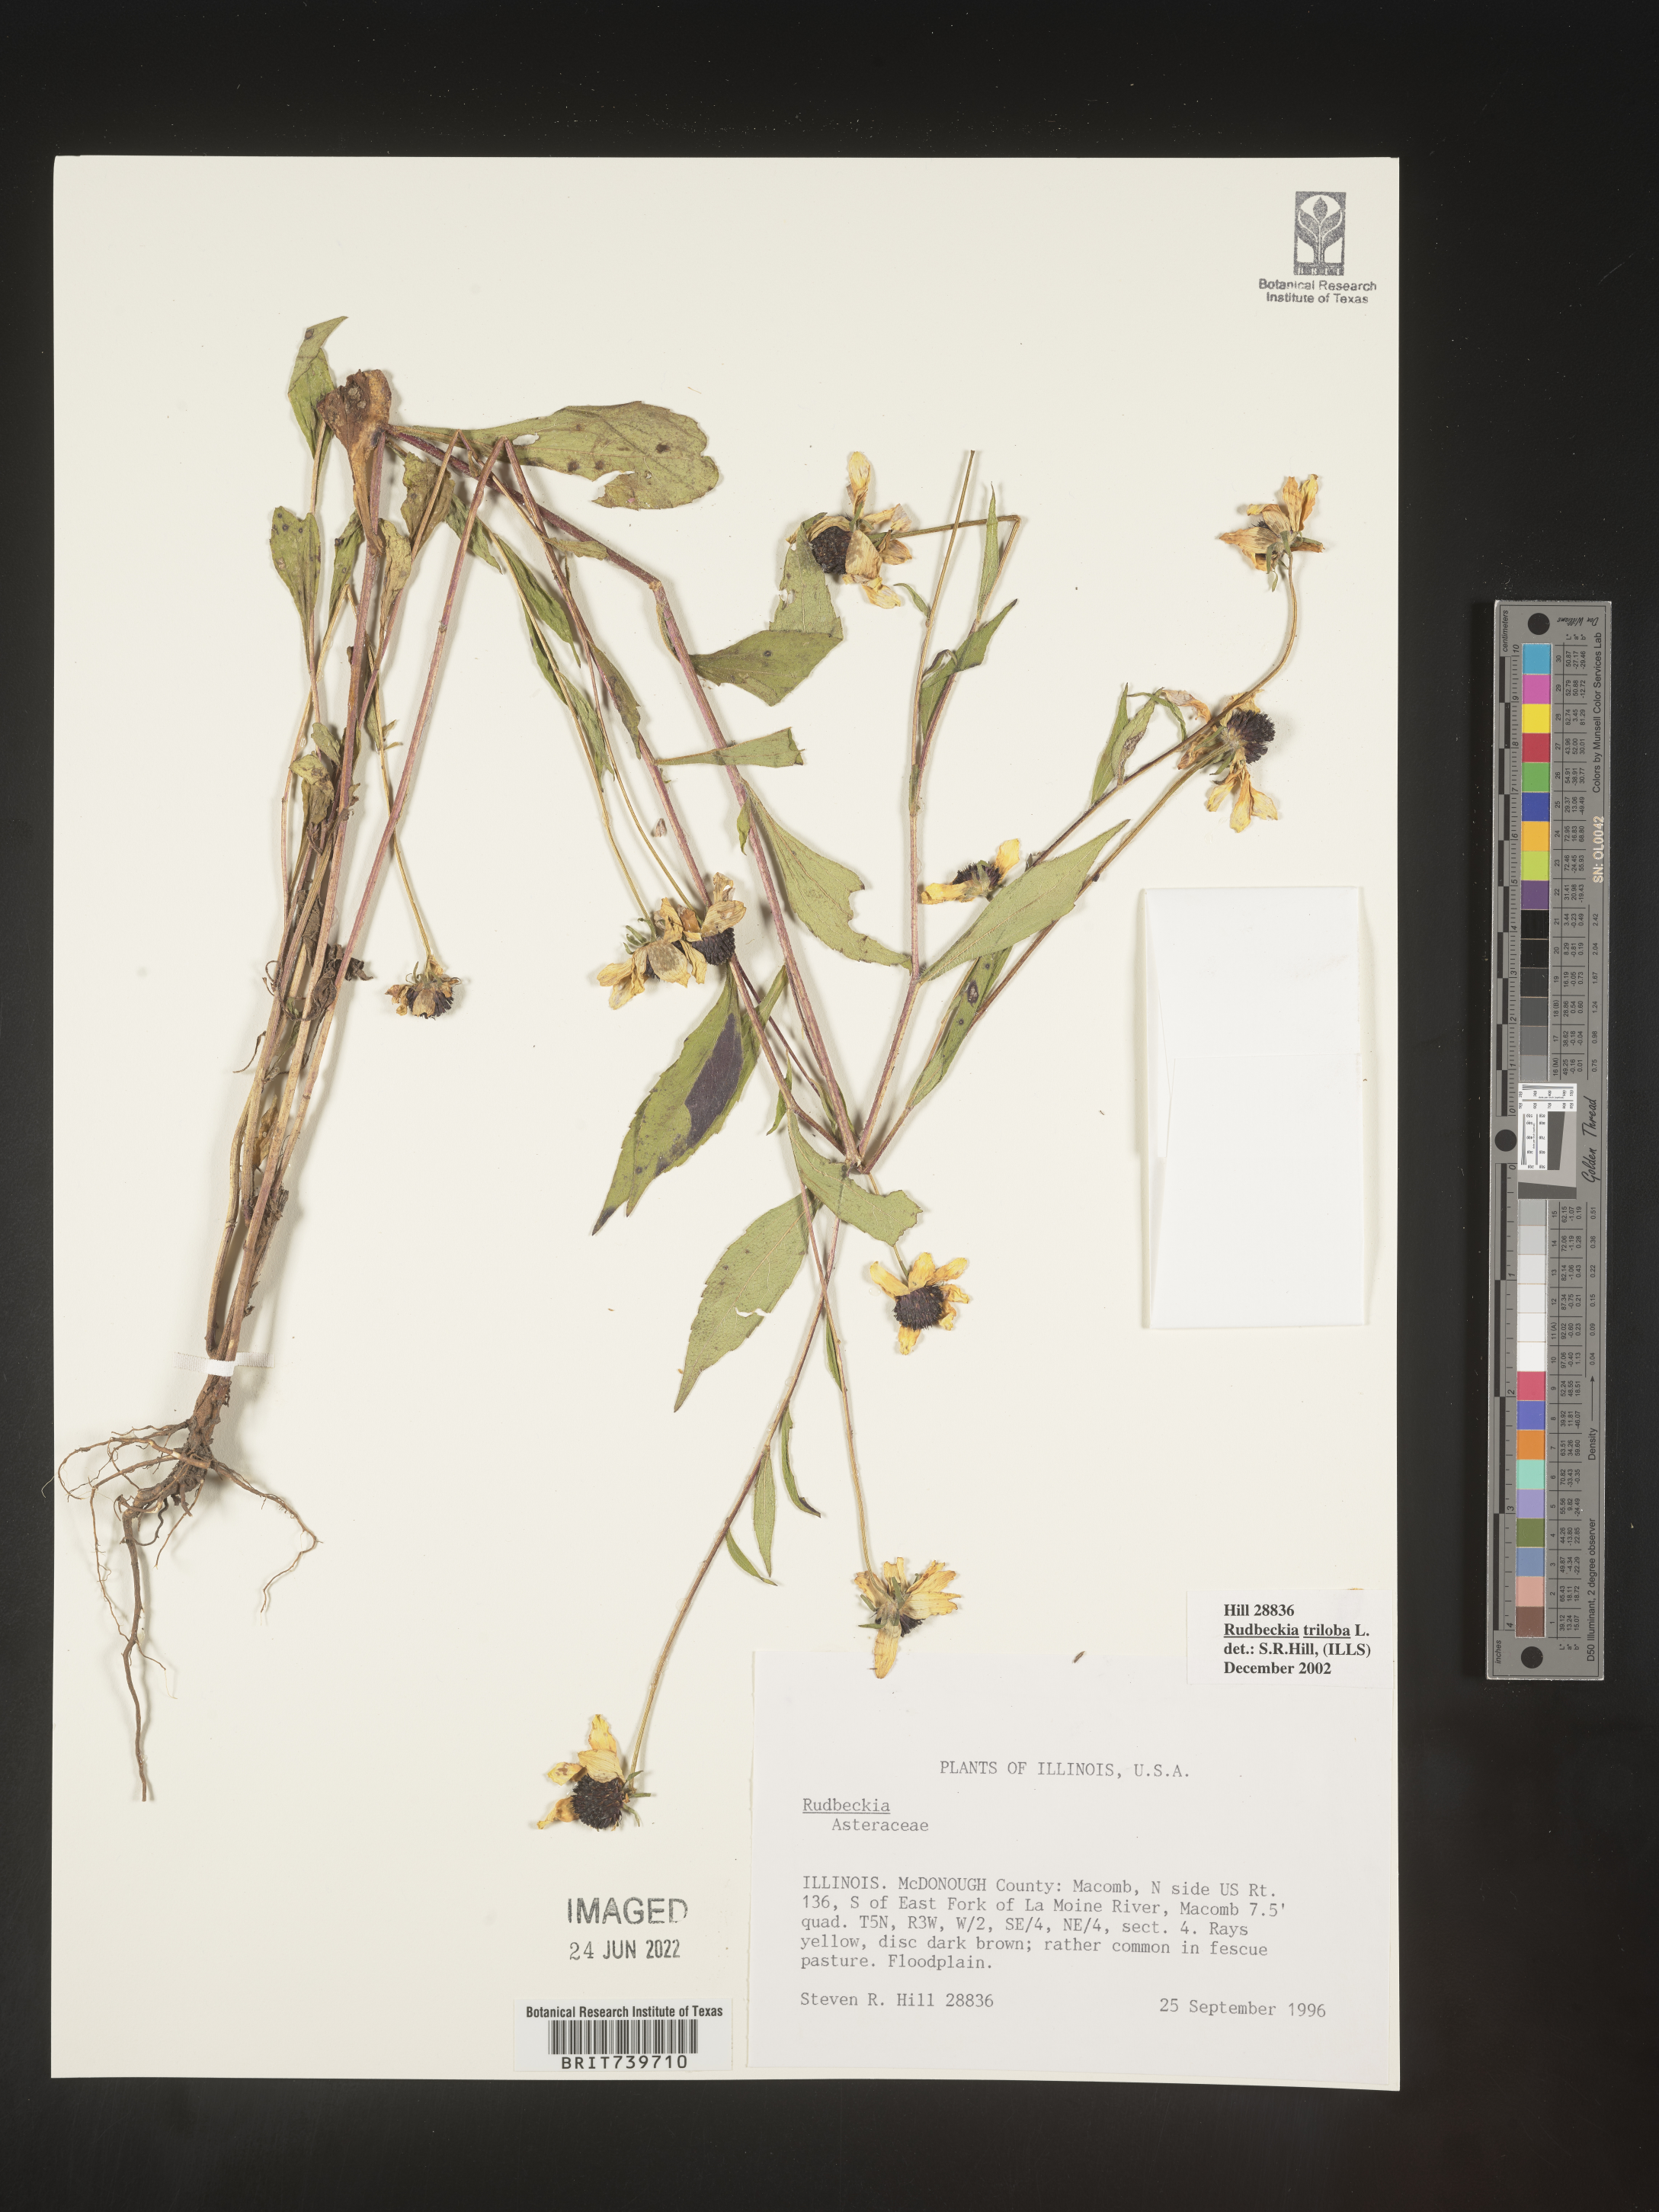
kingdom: Plantae
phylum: Tracheophyta
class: Magnoliopsida
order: Asterales
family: Asteraceae
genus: Rudbeckia
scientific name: Rudbeckia triloba
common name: Thin-leaved coneflower
